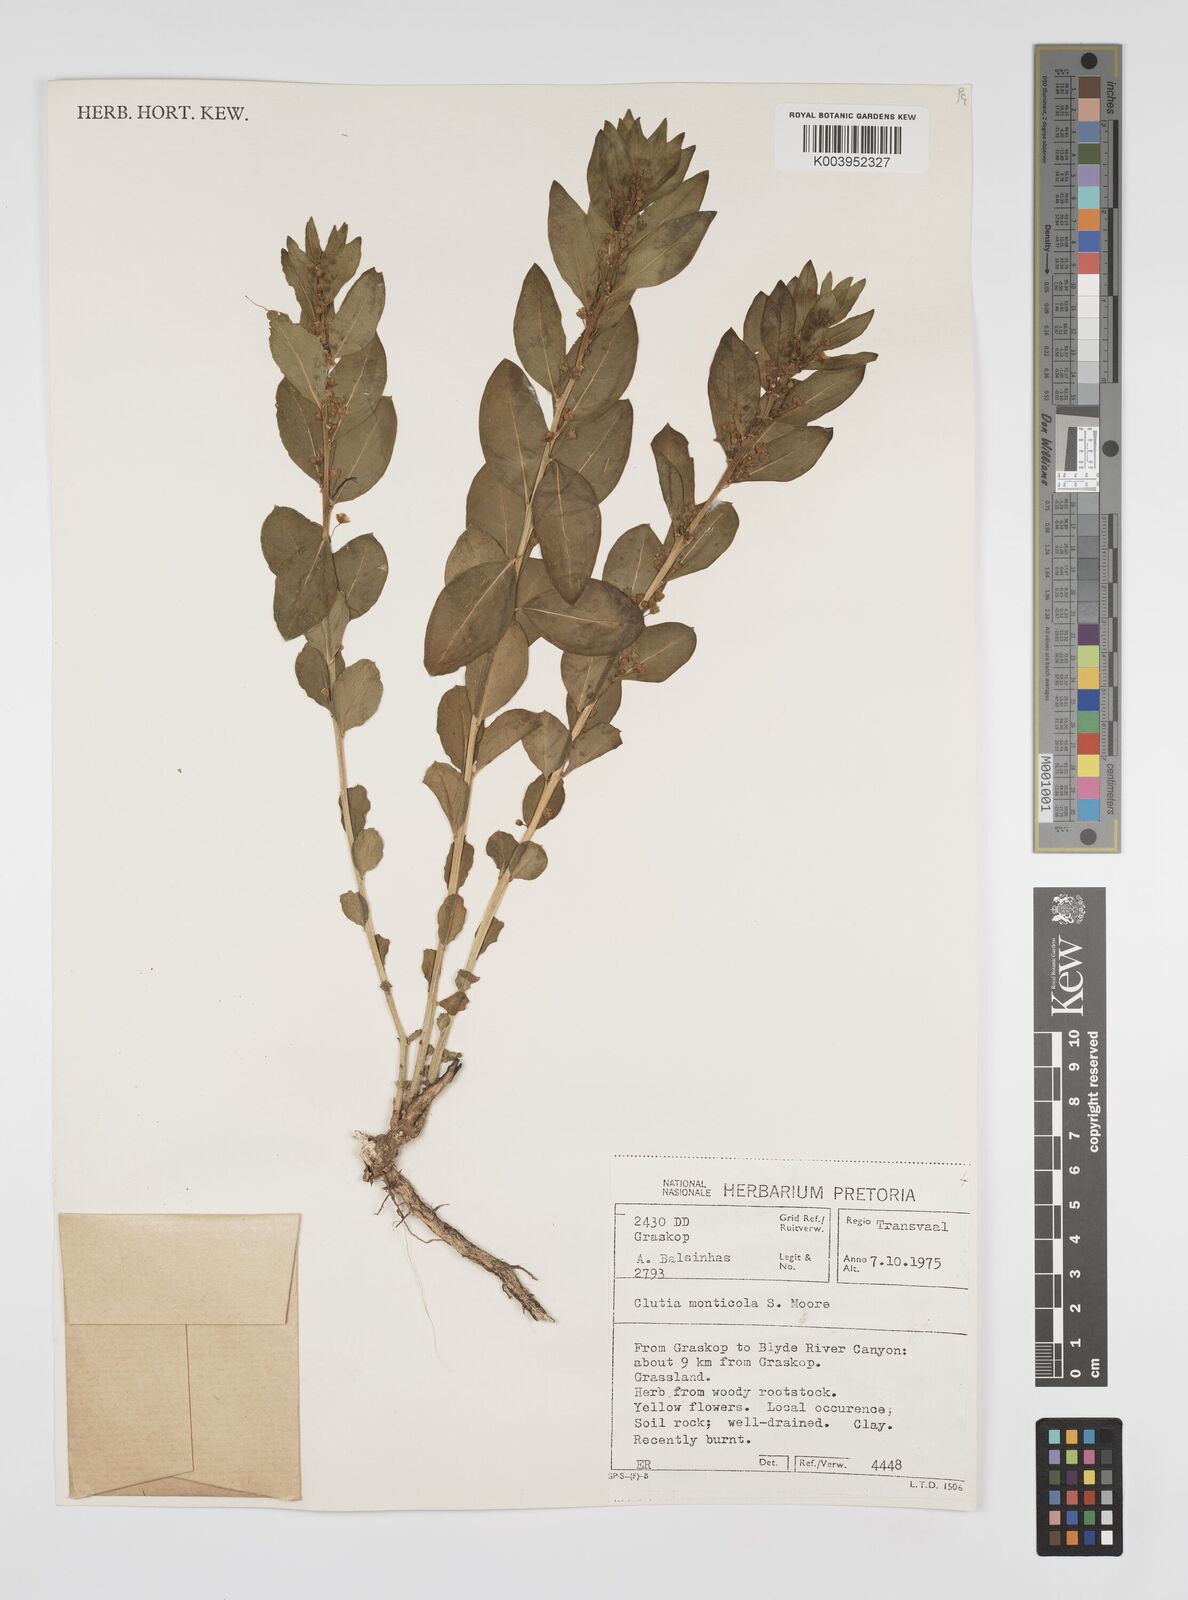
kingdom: Plantae
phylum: Tracheophyta
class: Magnoliopsida
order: Malpighiales
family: Peraceae
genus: Clutia
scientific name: Clutia monticola
